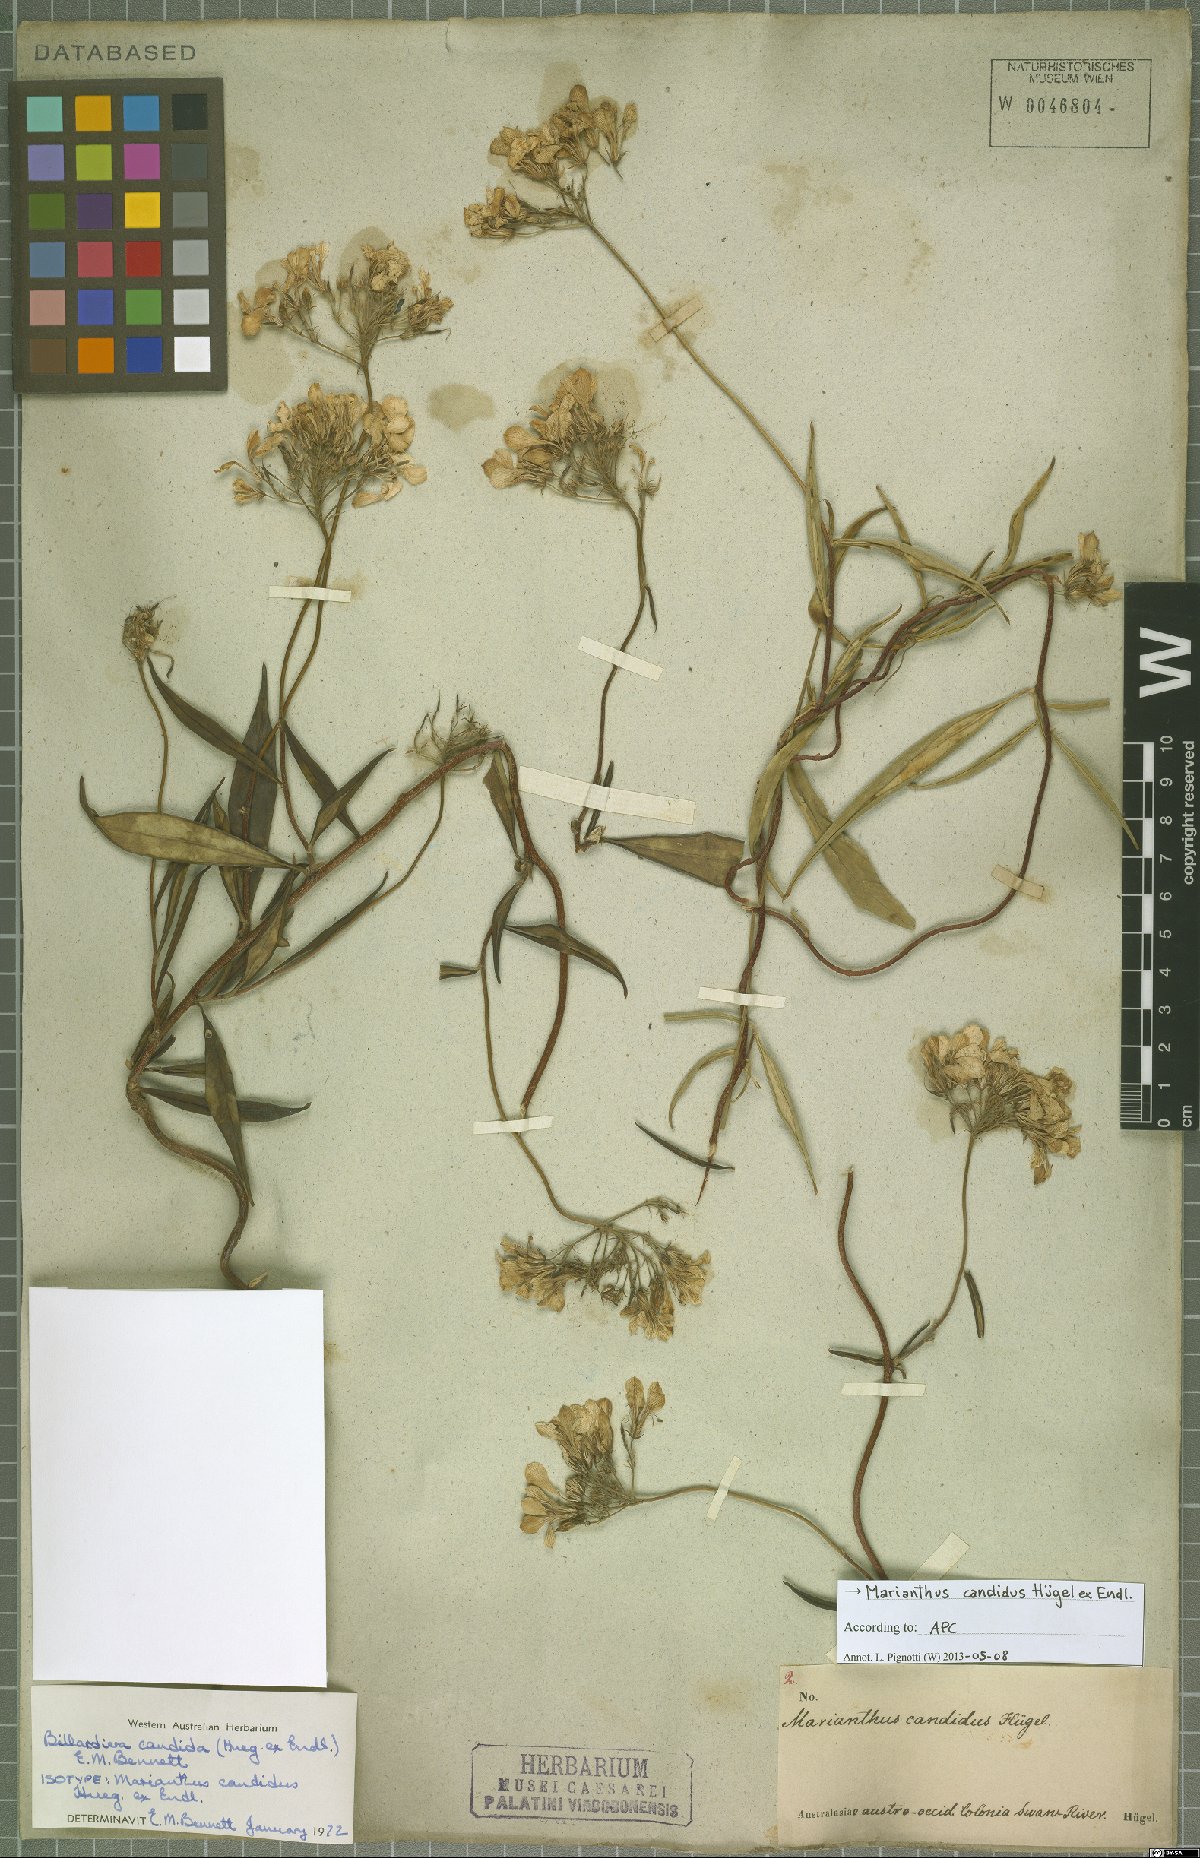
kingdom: Plantae
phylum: Tracheophyta
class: Magnoliopsida
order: Apiales
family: Pittosporaceae
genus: Marianthus
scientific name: Marianthus candidus
